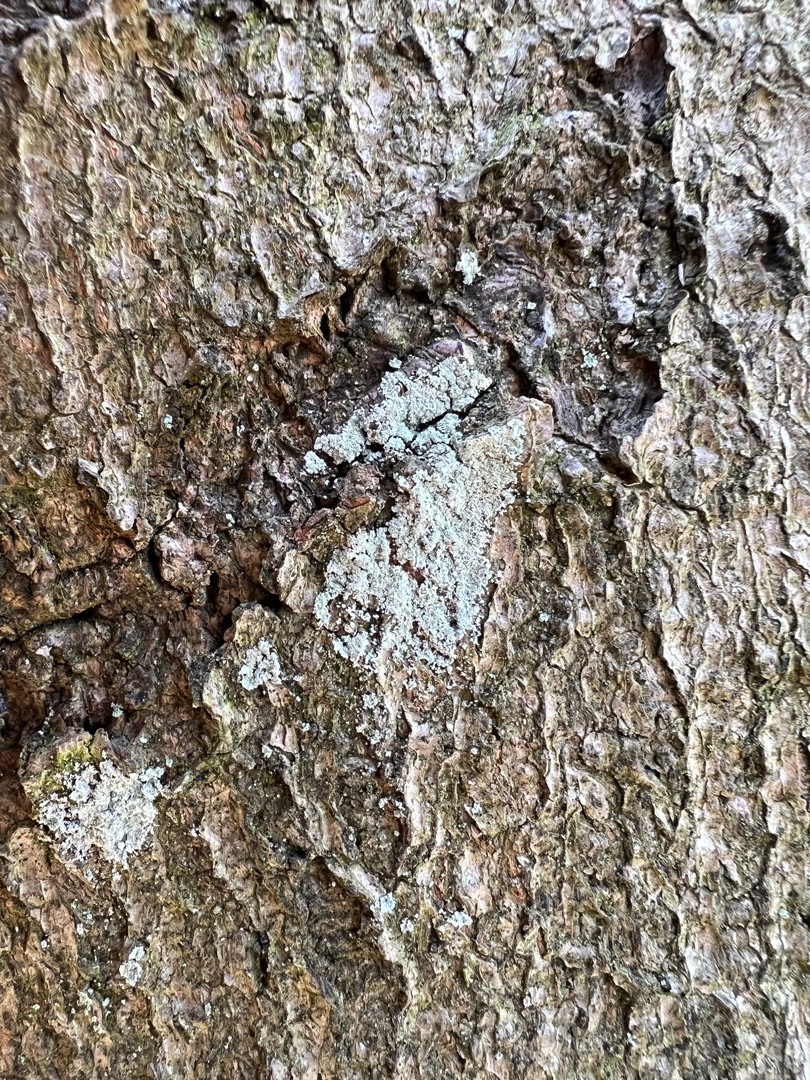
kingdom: Fungi
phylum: Ascomycota
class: Lecanoromycetes
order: Lecanorales
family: Stereocaulaceae
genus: Lepraria
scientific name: Lepraria incana
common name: Almindelig støvlav
